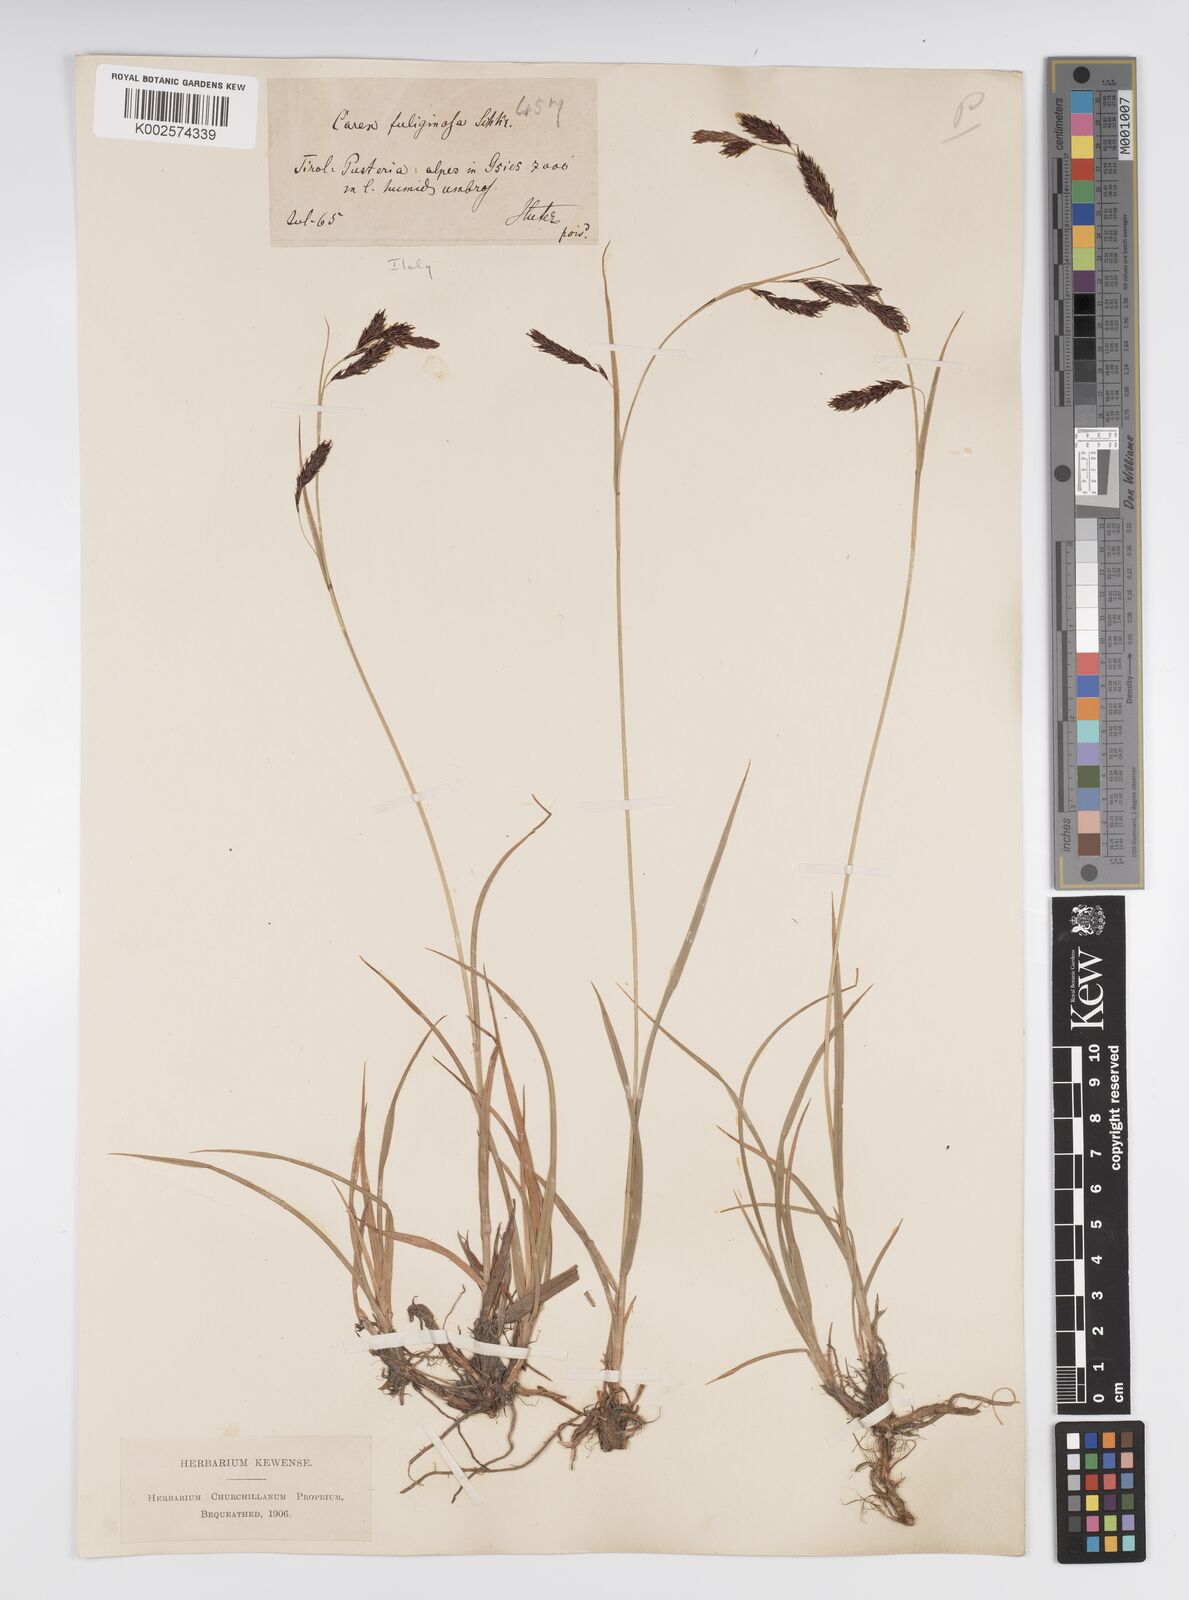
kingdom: Plantae
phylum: Tracheophyta
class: Liliopsida
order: Poales
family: Cyperaceae
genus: Carex
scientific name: Carex fuliginosa
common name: Few-flowered sedge
